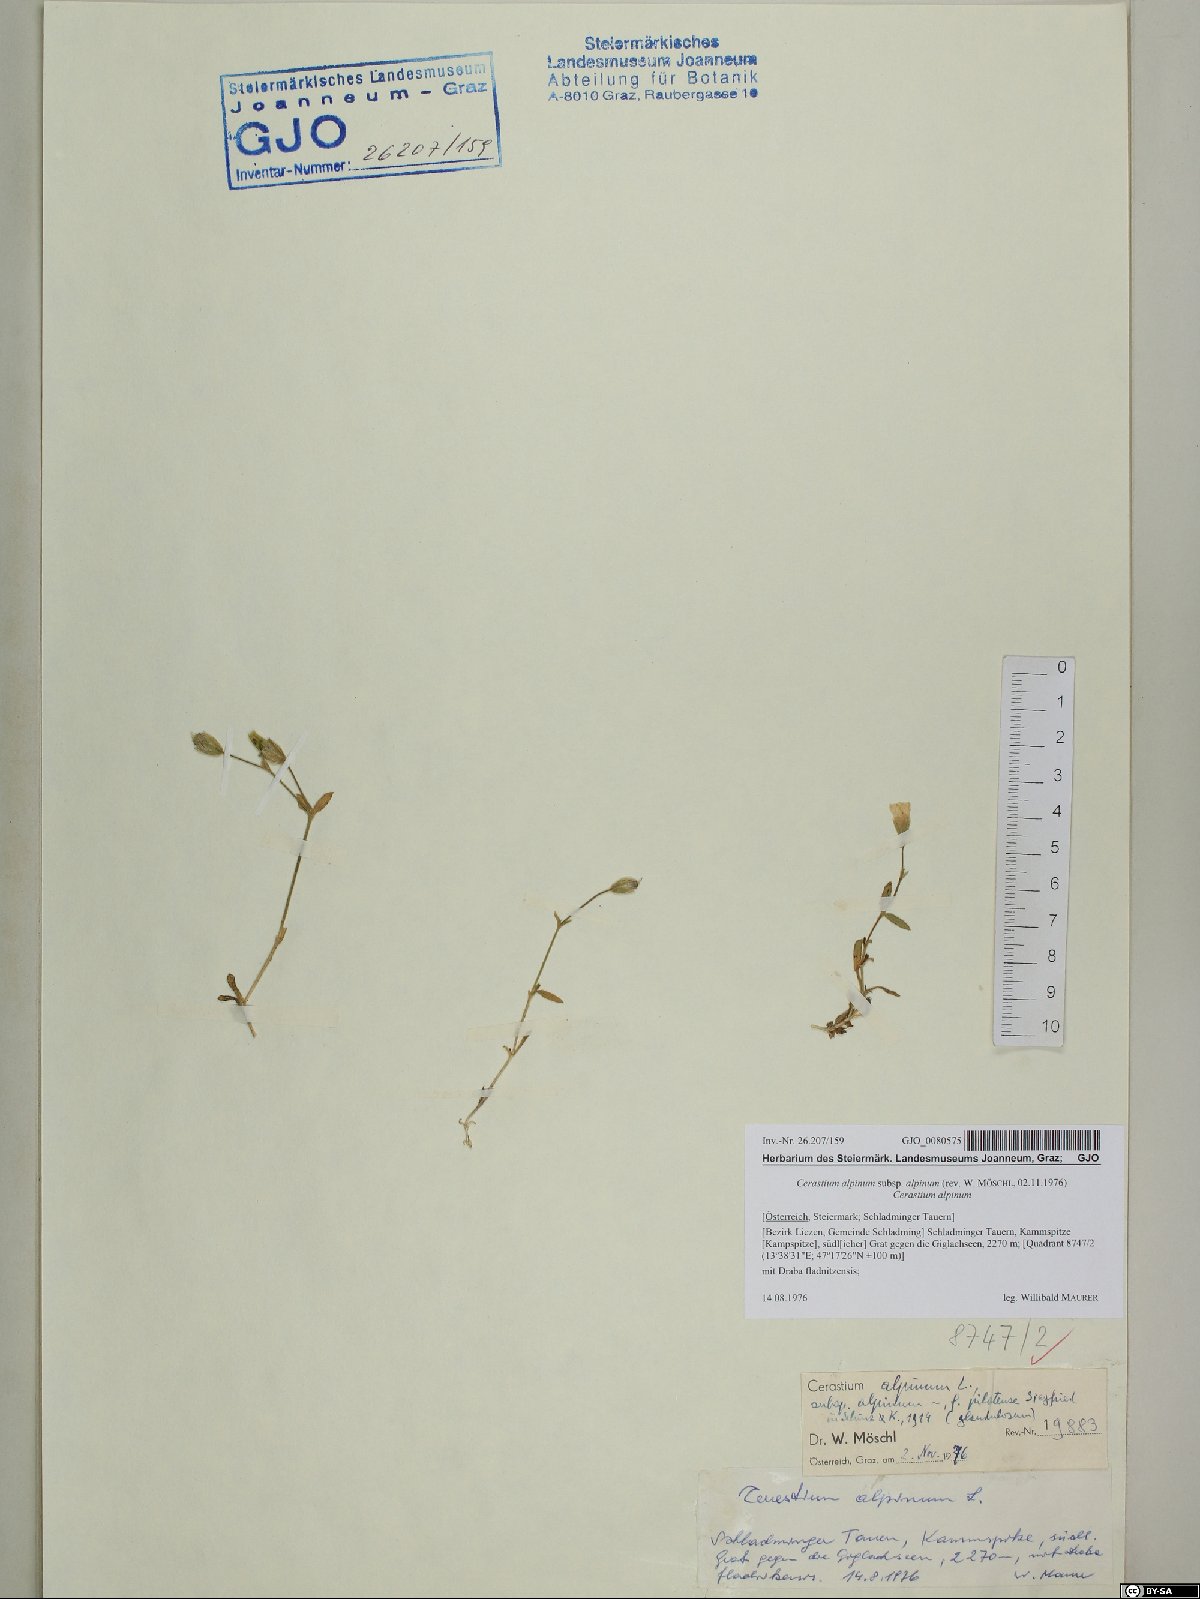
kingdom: Plantae
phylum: Tracheophyta
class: Magnoliopsida
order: Caryophyllales
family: Caryophyllaceae
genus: Cerastium
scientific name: Cerastium alpinum
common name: Alpine mouse-ear
